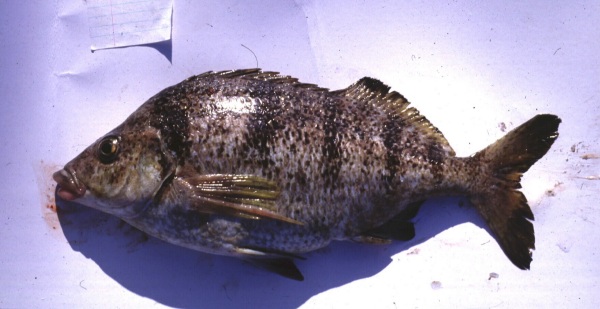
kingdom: Animalia
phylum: Chordata
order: Perciformes
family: Cheilodactylidae
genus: Nemadactylus
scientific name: Nemadactylus monodactylus
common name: St. paul's fingerfin
